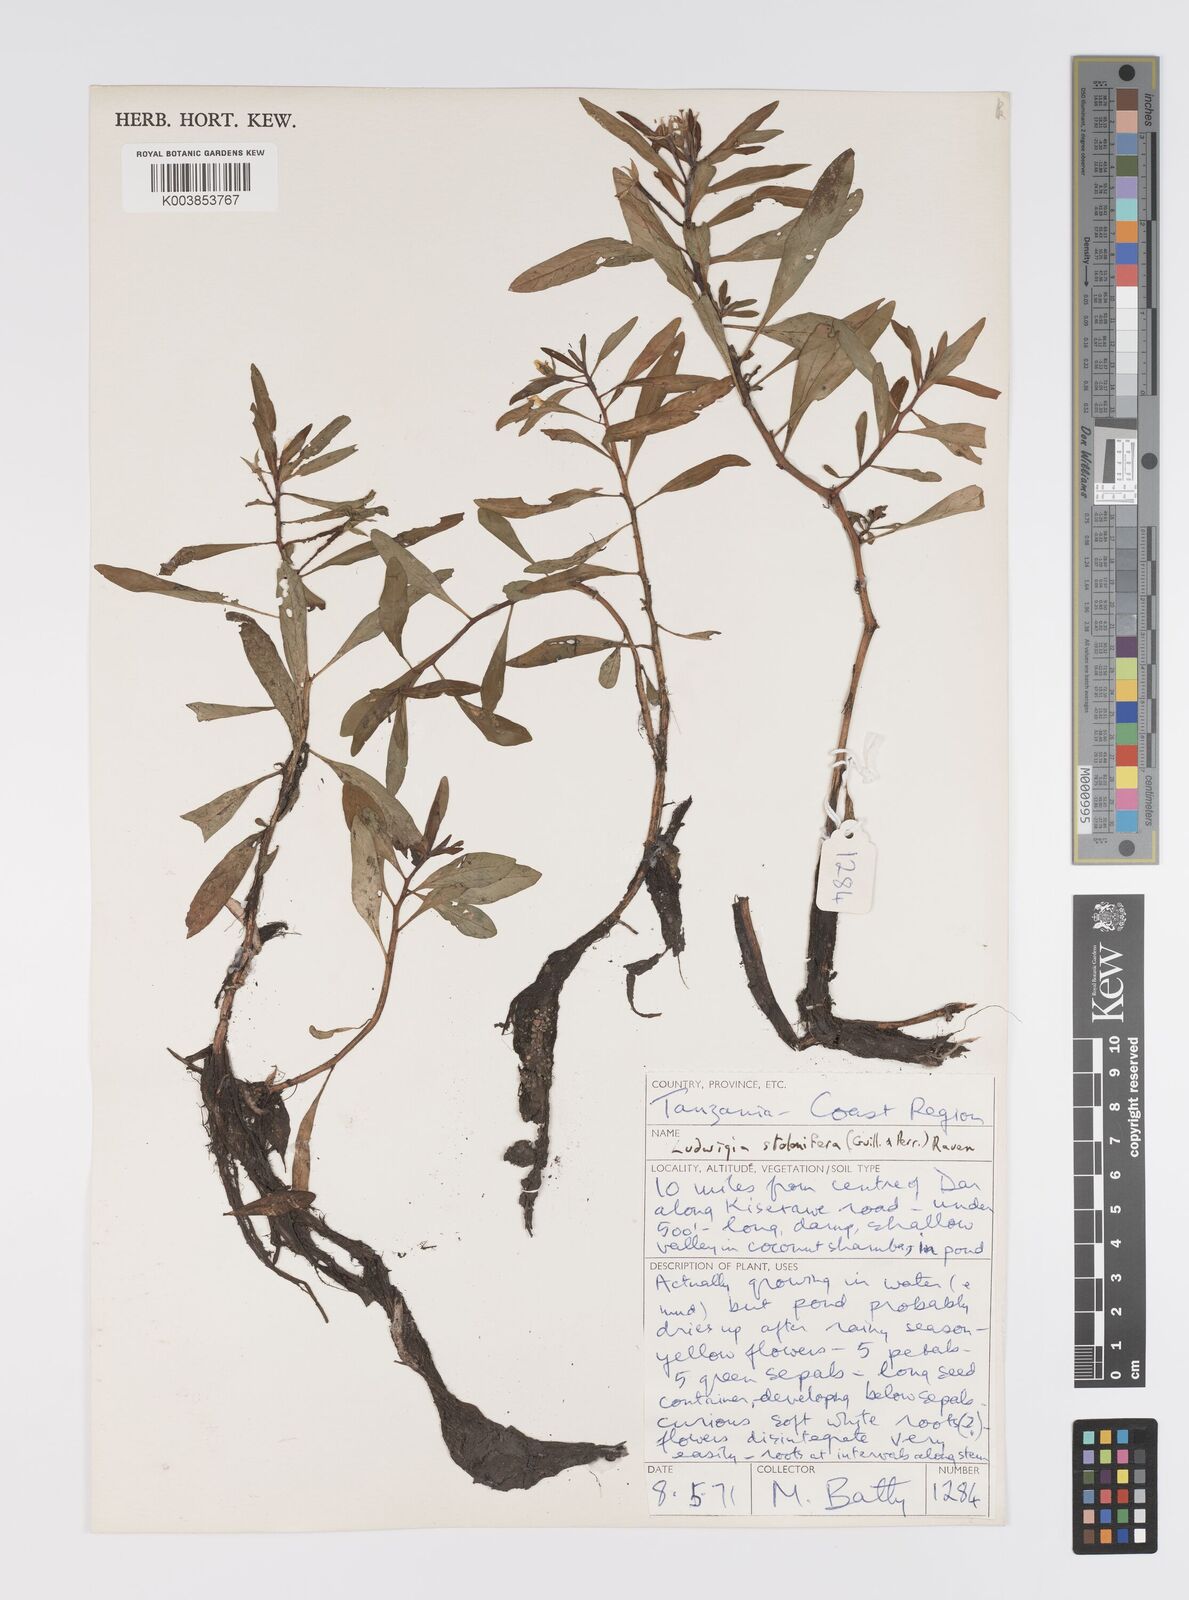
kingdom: Plantae
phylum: Tracheophyta
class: Magnoliopsida
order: Myrtales
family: Onagraceae
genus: Ludwigia
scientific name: Ludwigia repens
